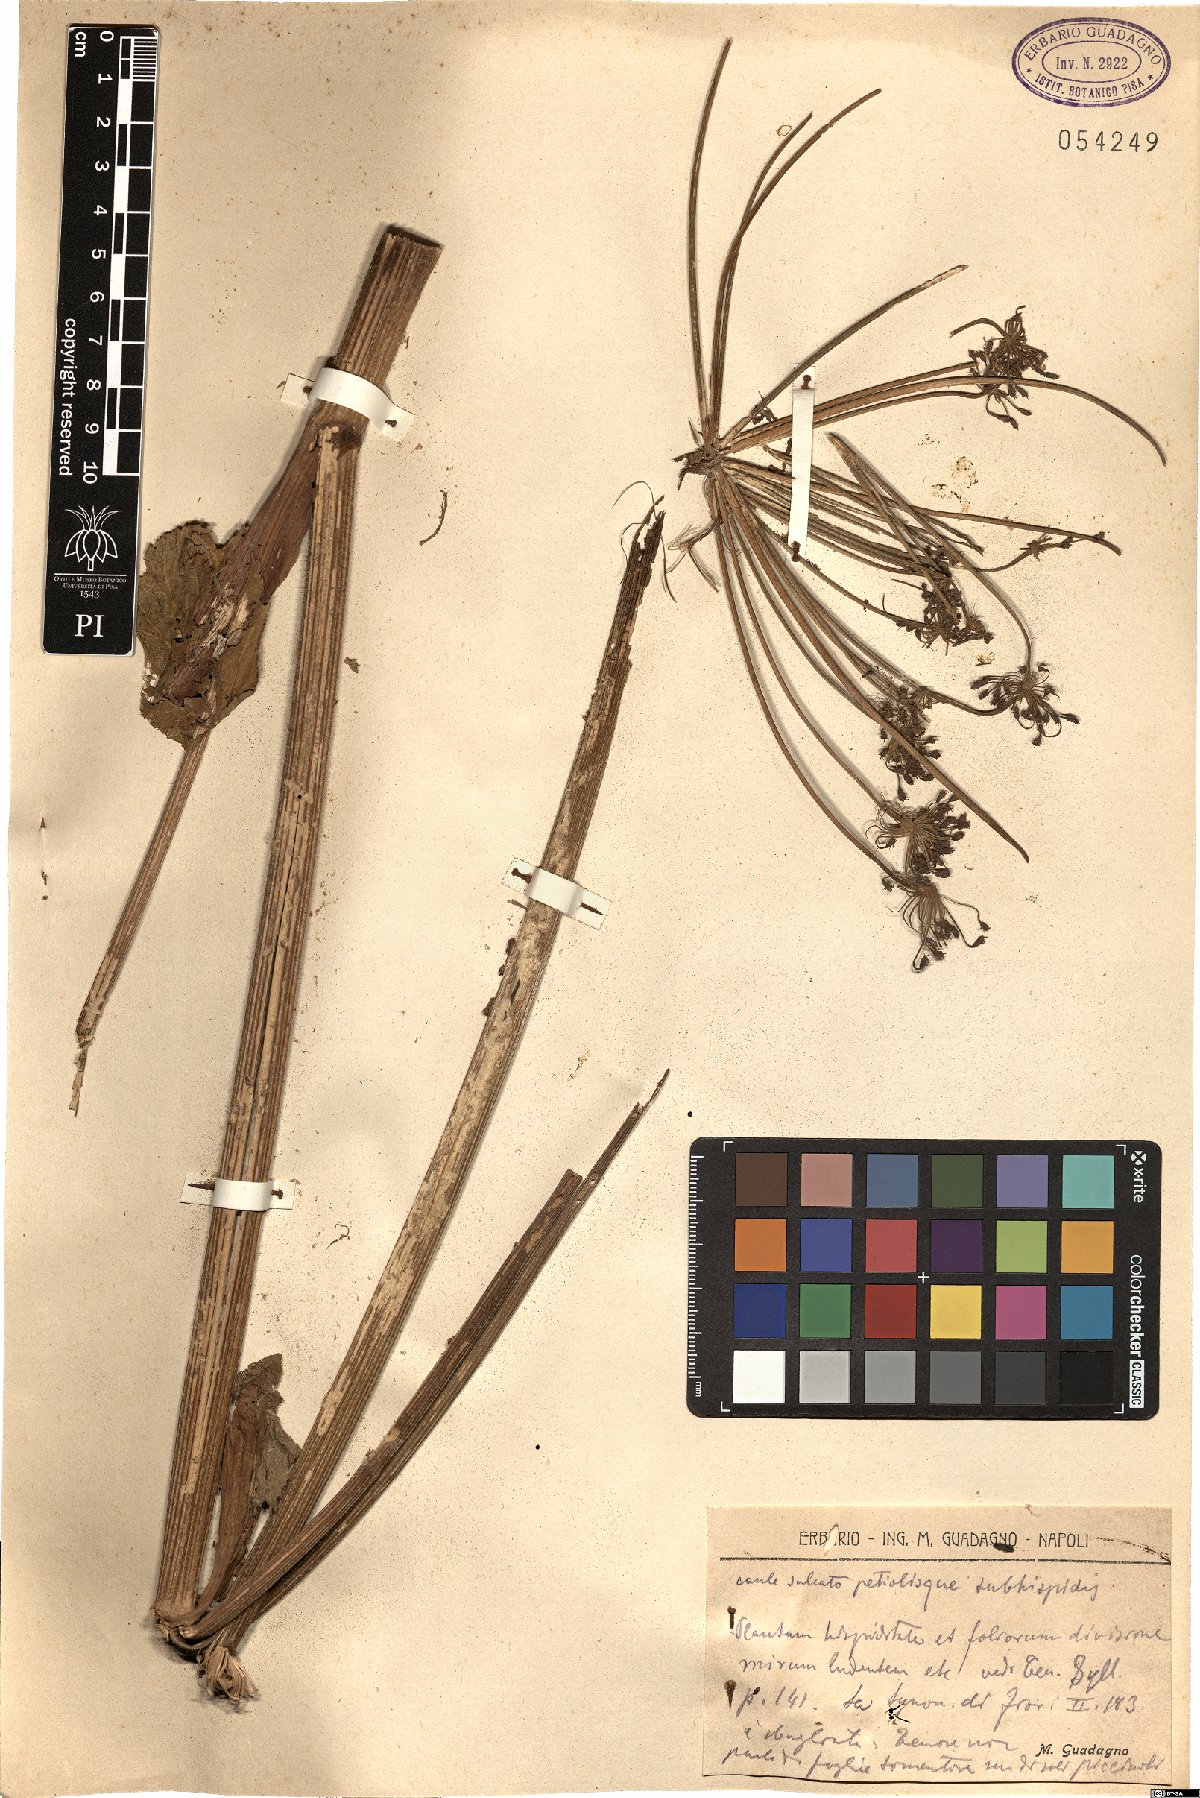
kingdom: Plantae
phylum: Tracheophyta
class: Magnoliopsida
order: Apiales
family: Apiaceae
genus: Heracleum
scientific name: Heracleum
